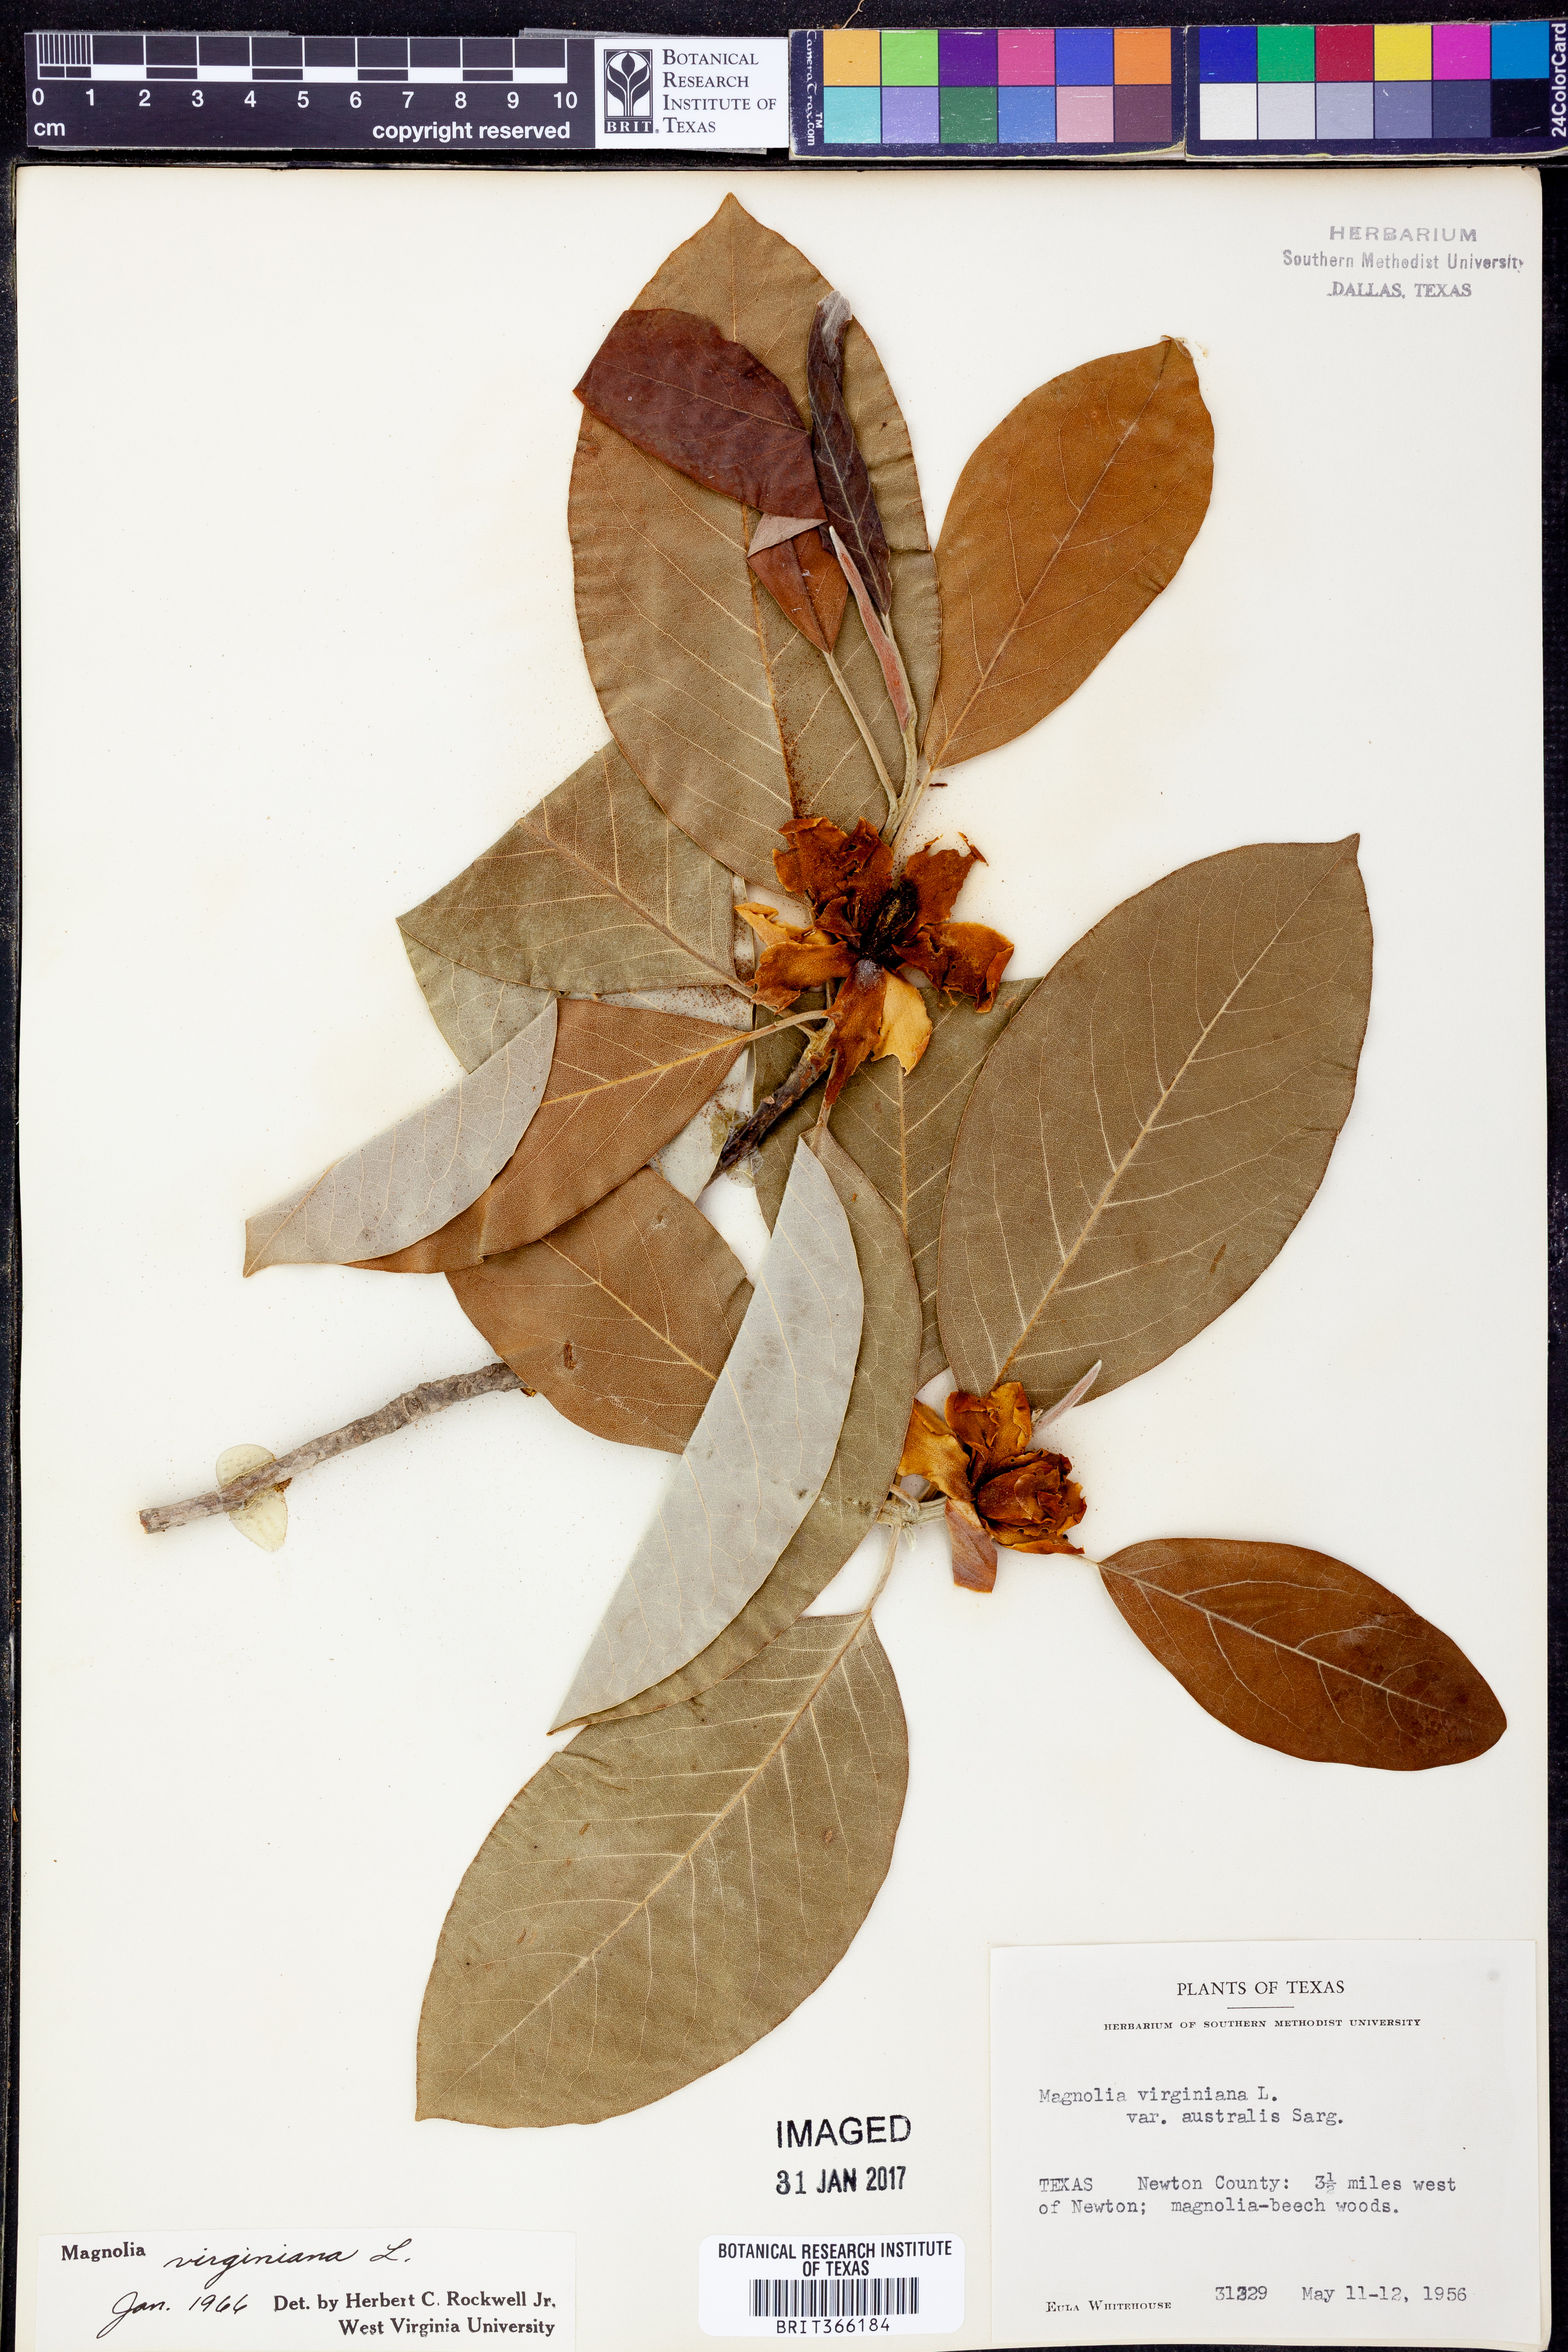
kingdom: Plantae
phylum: Tracheophyta
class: Magnoliopsida
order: Magnoliales
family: Magnoliaceae
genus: Magnolia
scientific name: Magnolia virginiana
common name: Swamp bay
